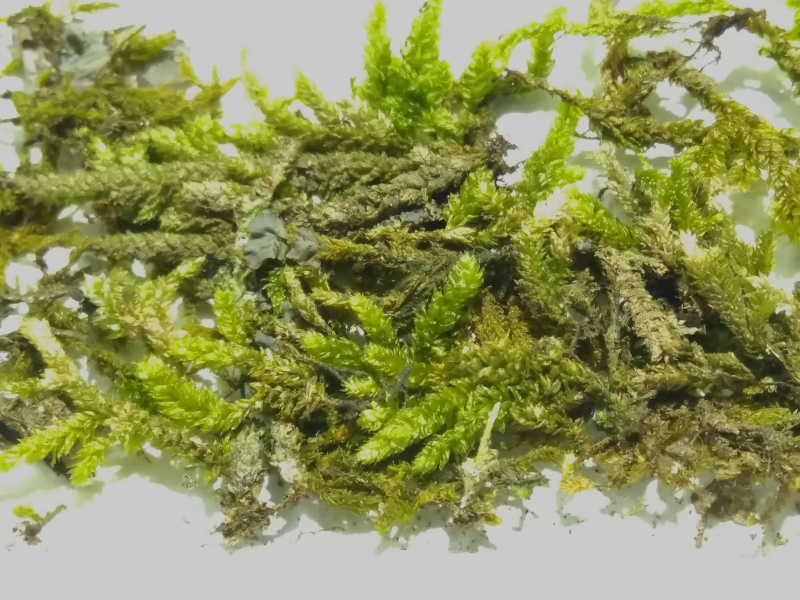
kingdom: Plantae
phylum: Bryophyta
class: Bryopsida
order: Hypnales
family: Pterobryaceae
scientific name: Pterobryaceae
